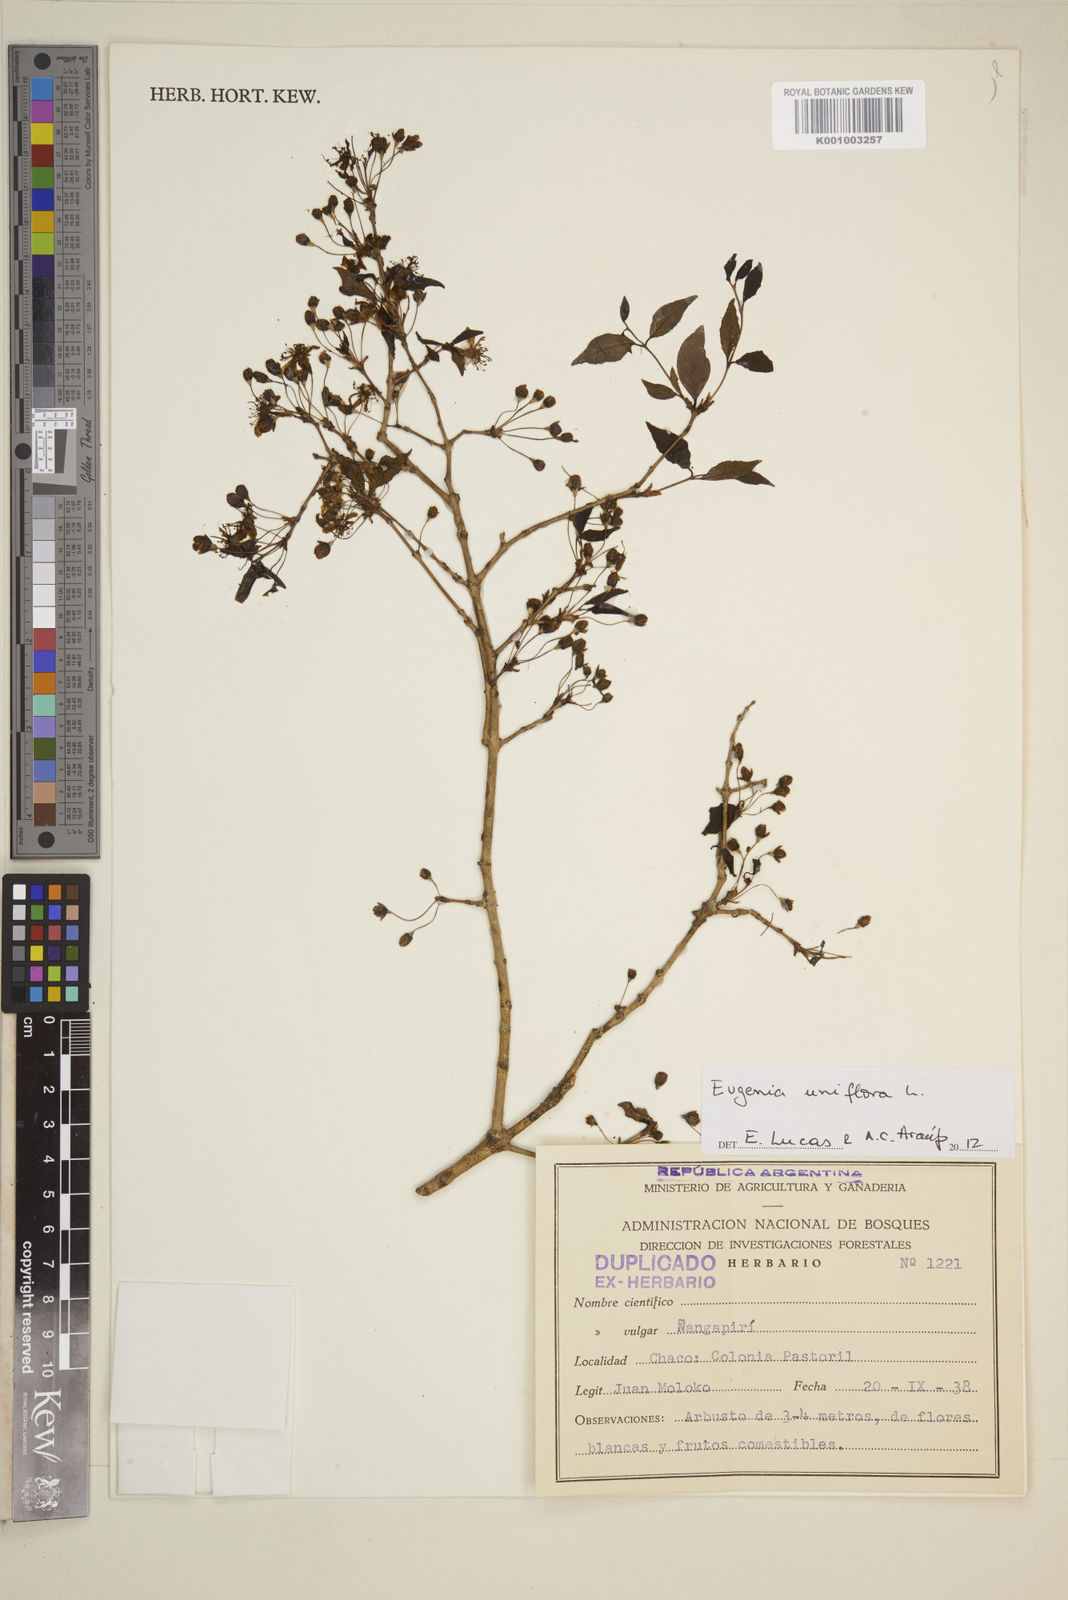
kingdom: Plantae
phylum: Tracheophyta
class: Magnoliopsida
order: Myrtales
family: Myrtaceae
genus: Eugenia
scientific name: Eugenia uniflora
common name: Surinam cherry
